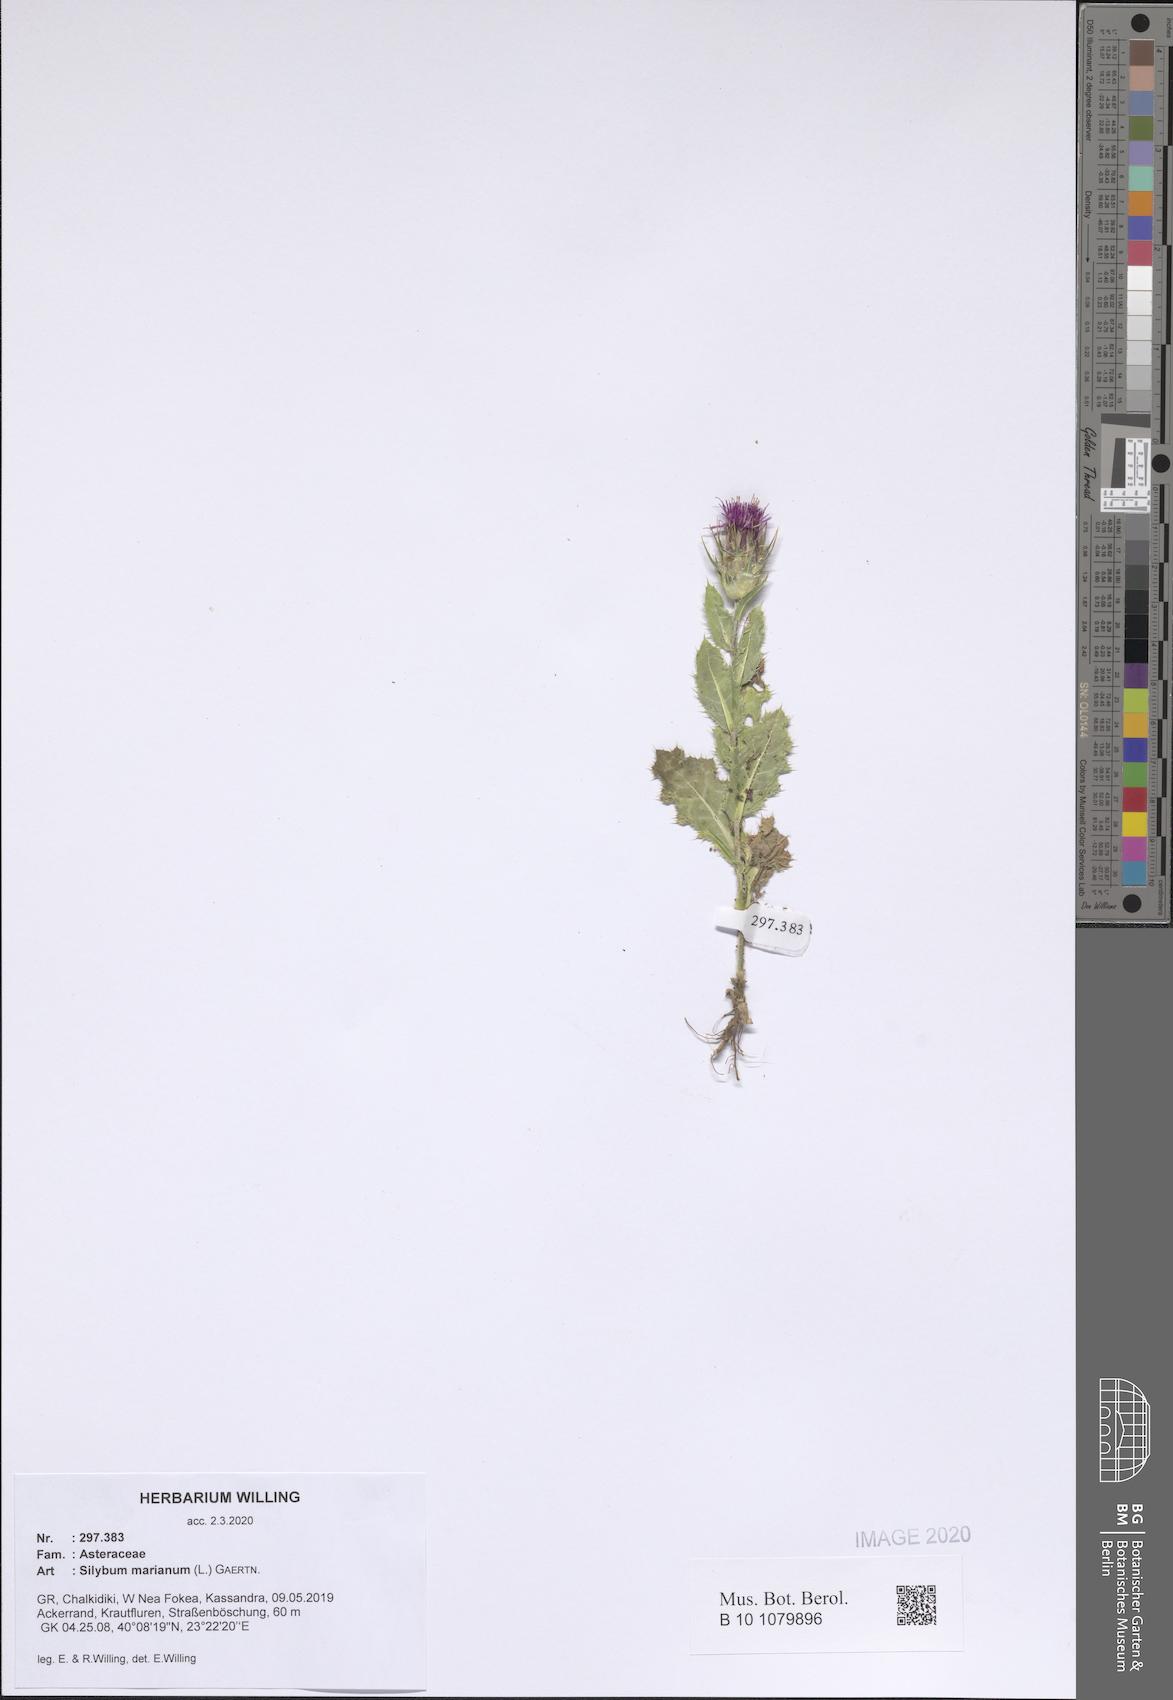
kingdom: Plantae
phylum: Tracheophyta
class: Magnoliopsida
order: Asterales
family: Asteraceae
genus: Silybum
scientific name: Silybum marianum
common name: Milk thistle
